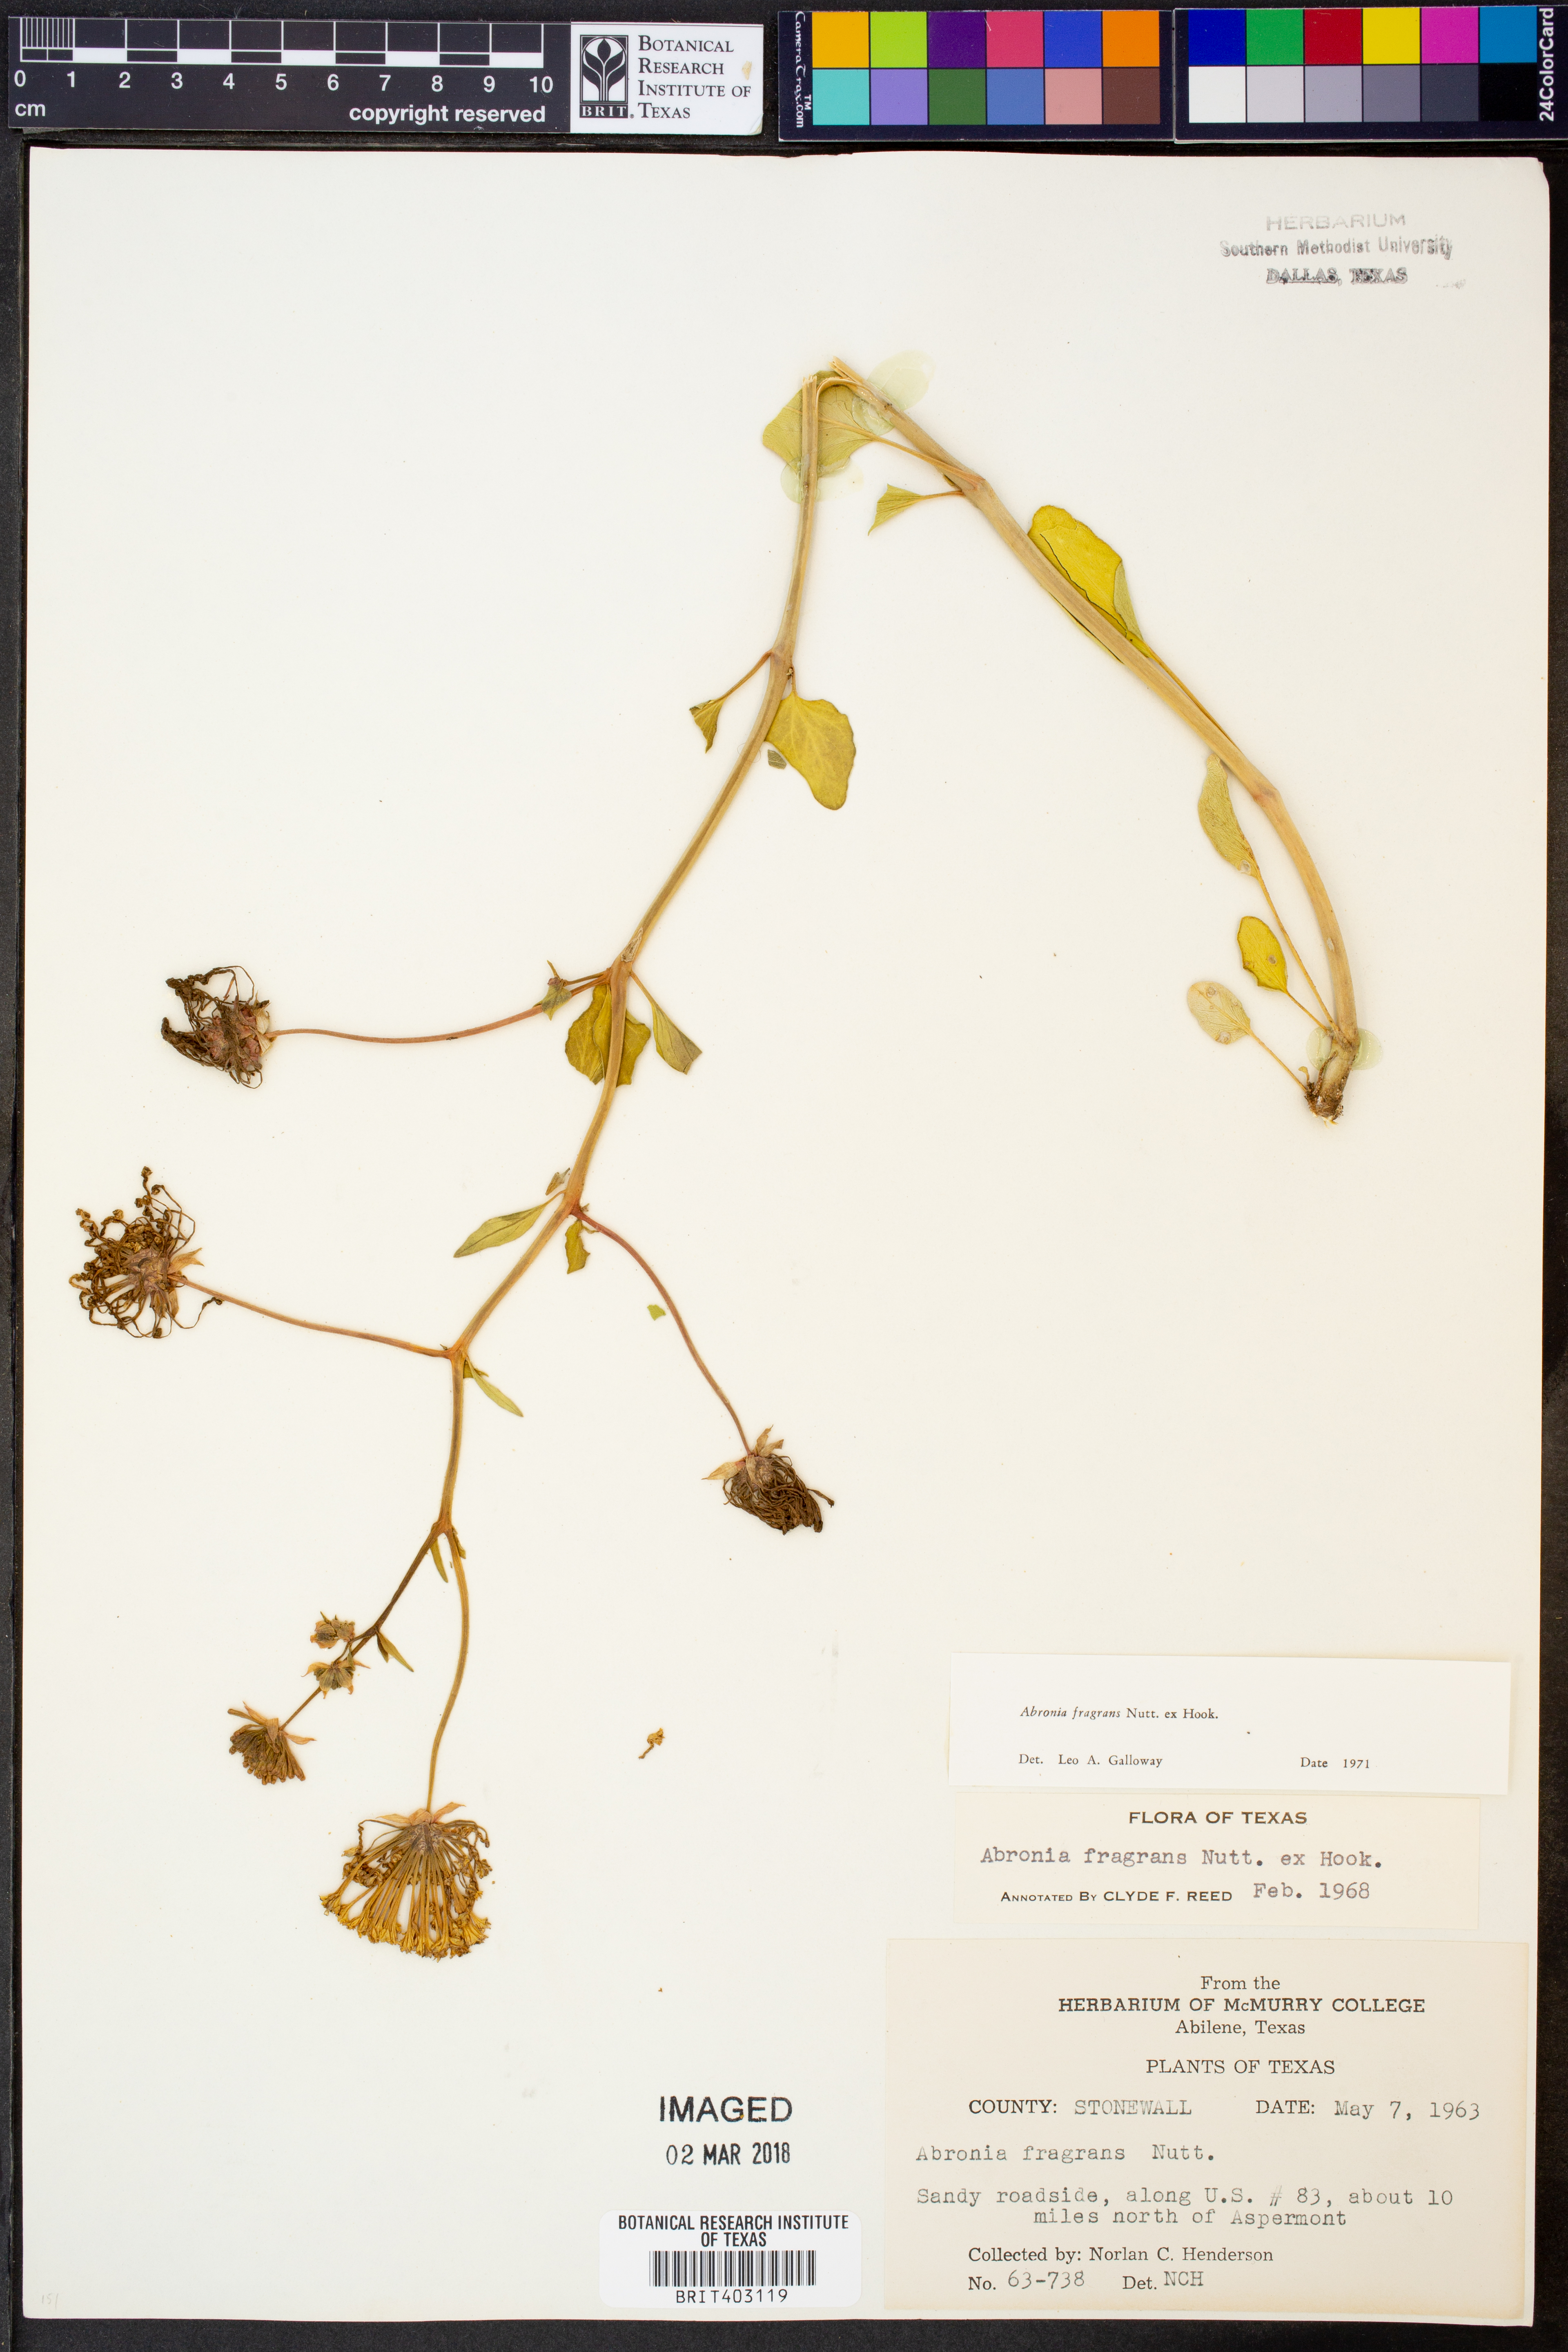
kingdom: Plantae
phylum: Tracheophyta
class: Magnoliopsida
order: Caryophyllales
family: Nyctaginaceae
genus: Abronia
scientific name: Abronia fragrans
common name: Fragrant sand-verbena
